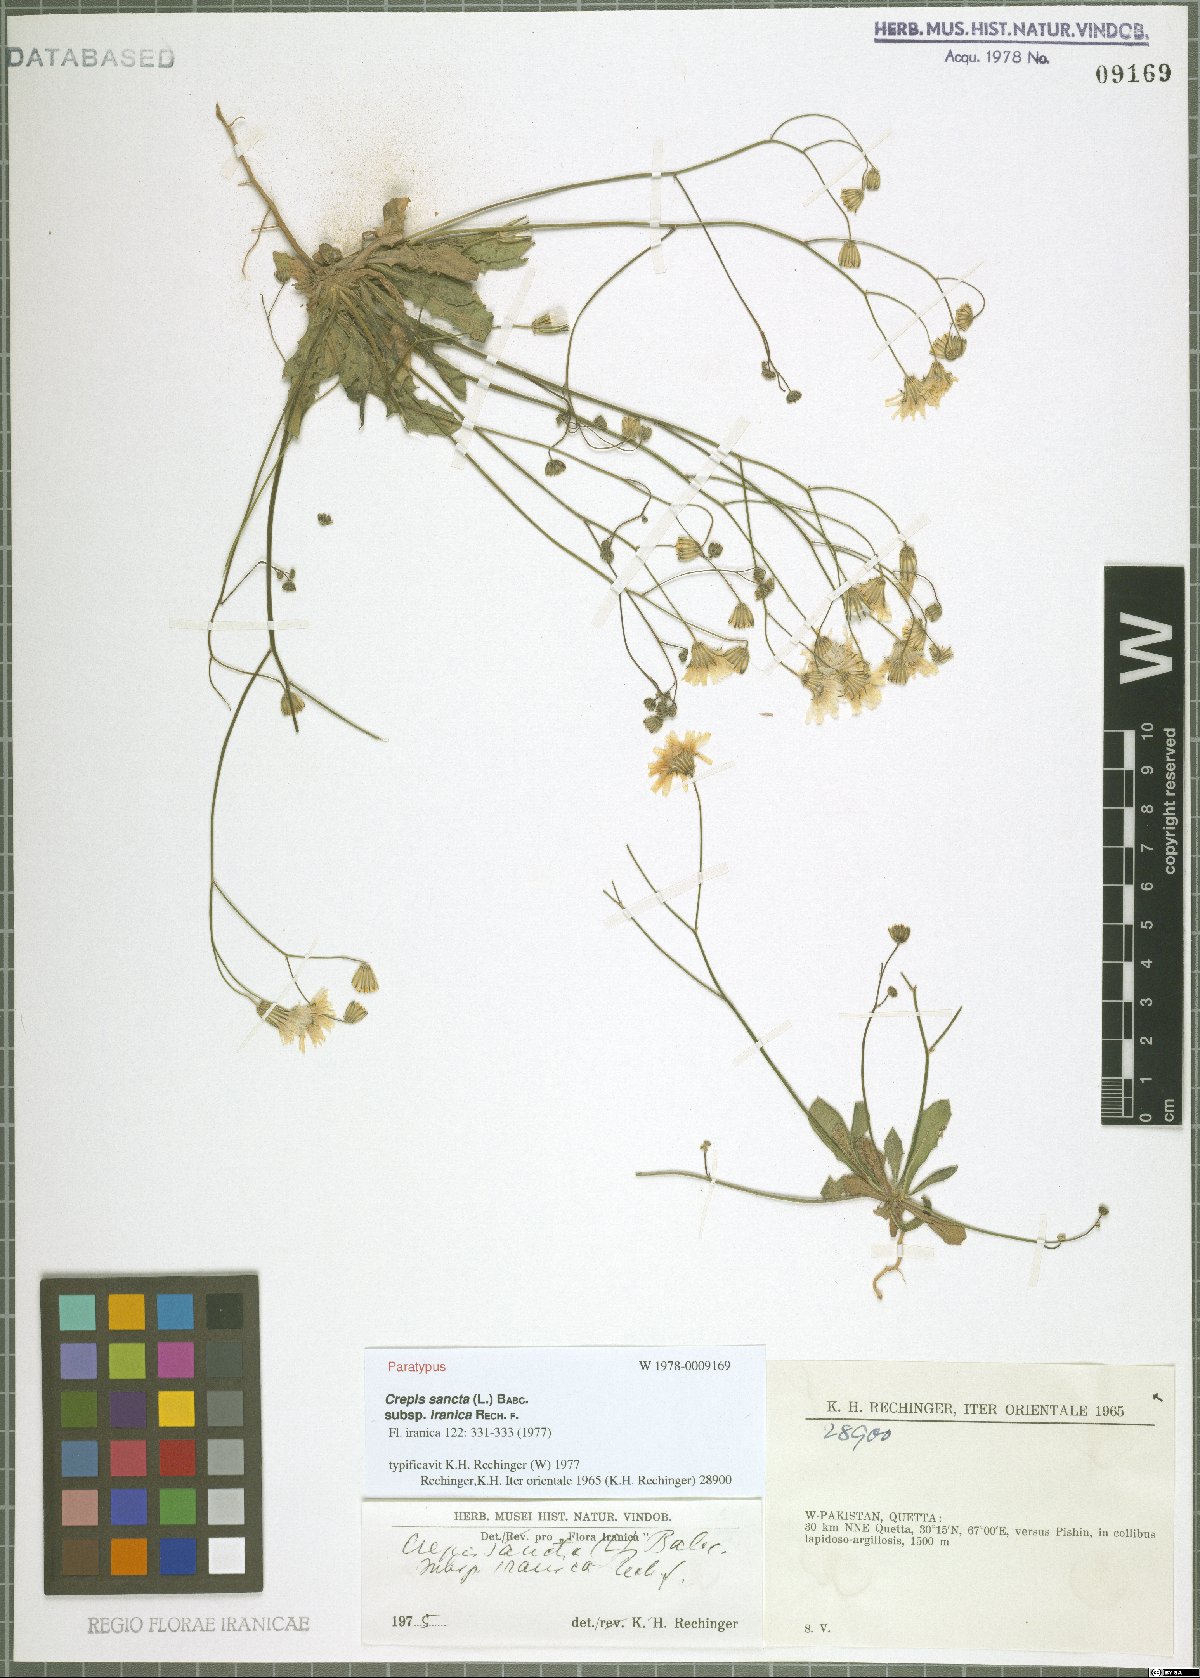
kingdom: Plantae
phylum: Tracheophyta
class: Magnoliopsida
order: Asterales
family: Asteraceae
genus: Crepis
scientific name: Crepis sancta
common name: Hawk's-beard
